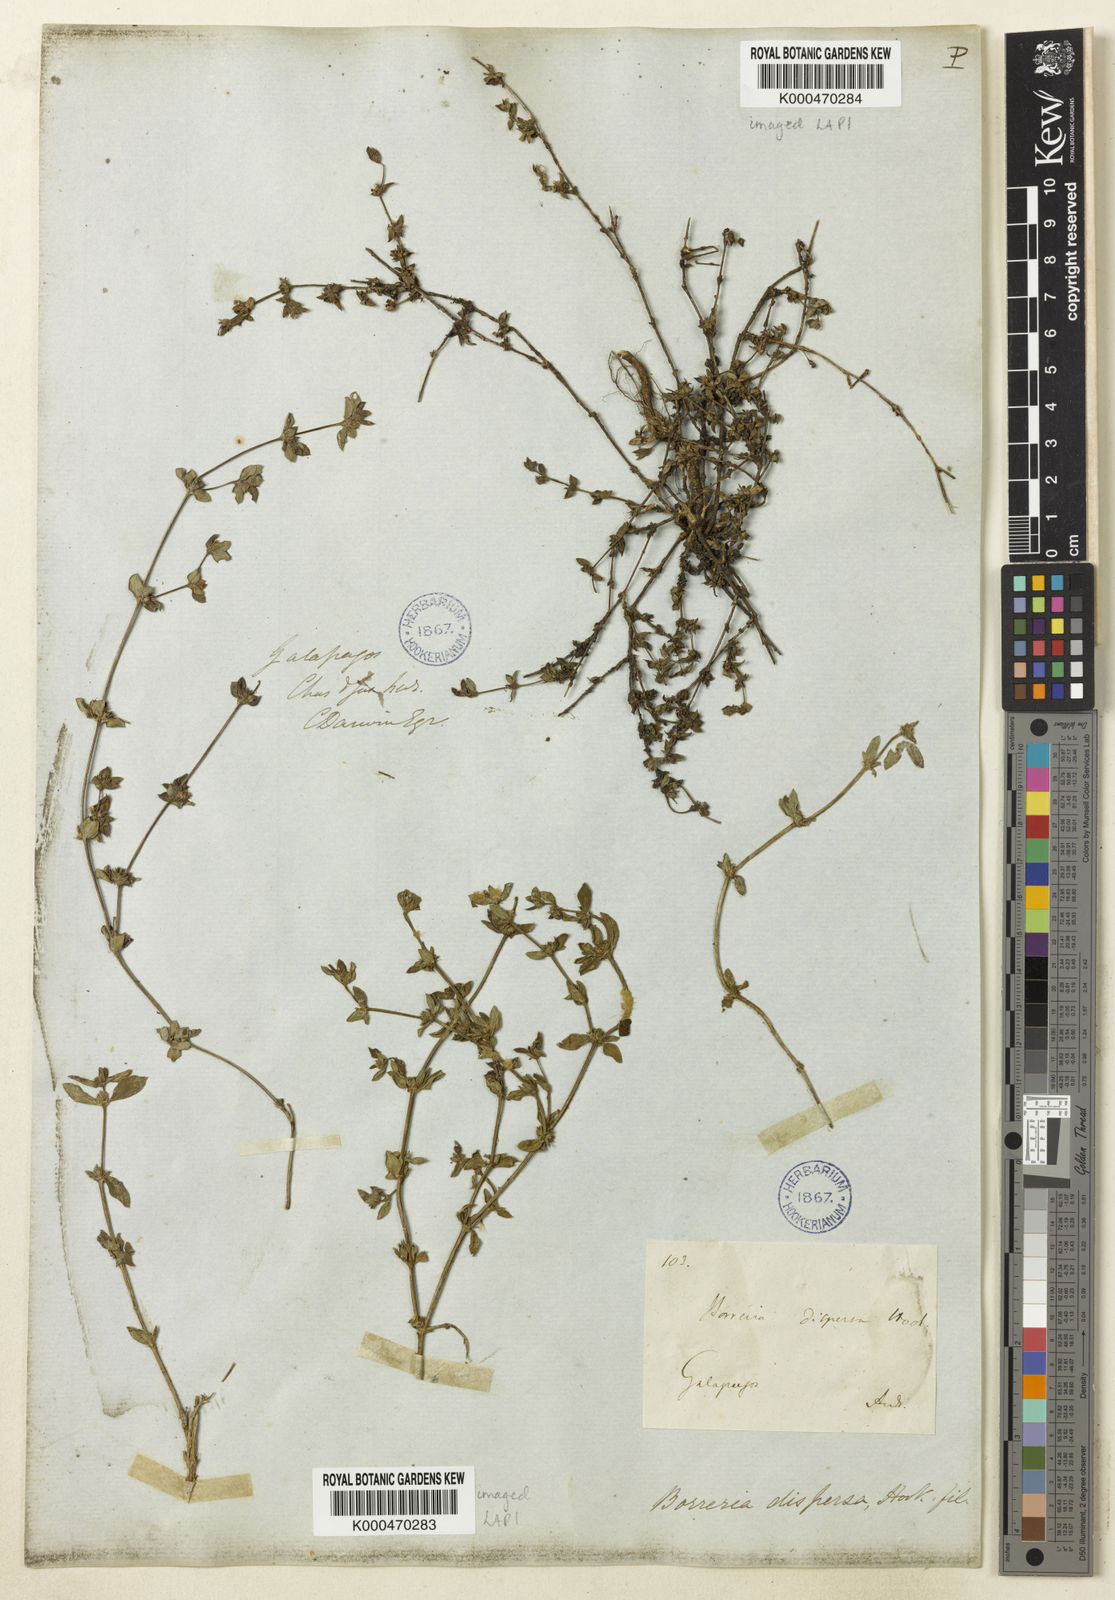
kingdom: Plantae
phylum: Tracheophyta
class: Magnoliopsida
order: Gentianales
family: Rubiaceae
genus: Spermacoce
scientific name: Spermacoce dispersa
